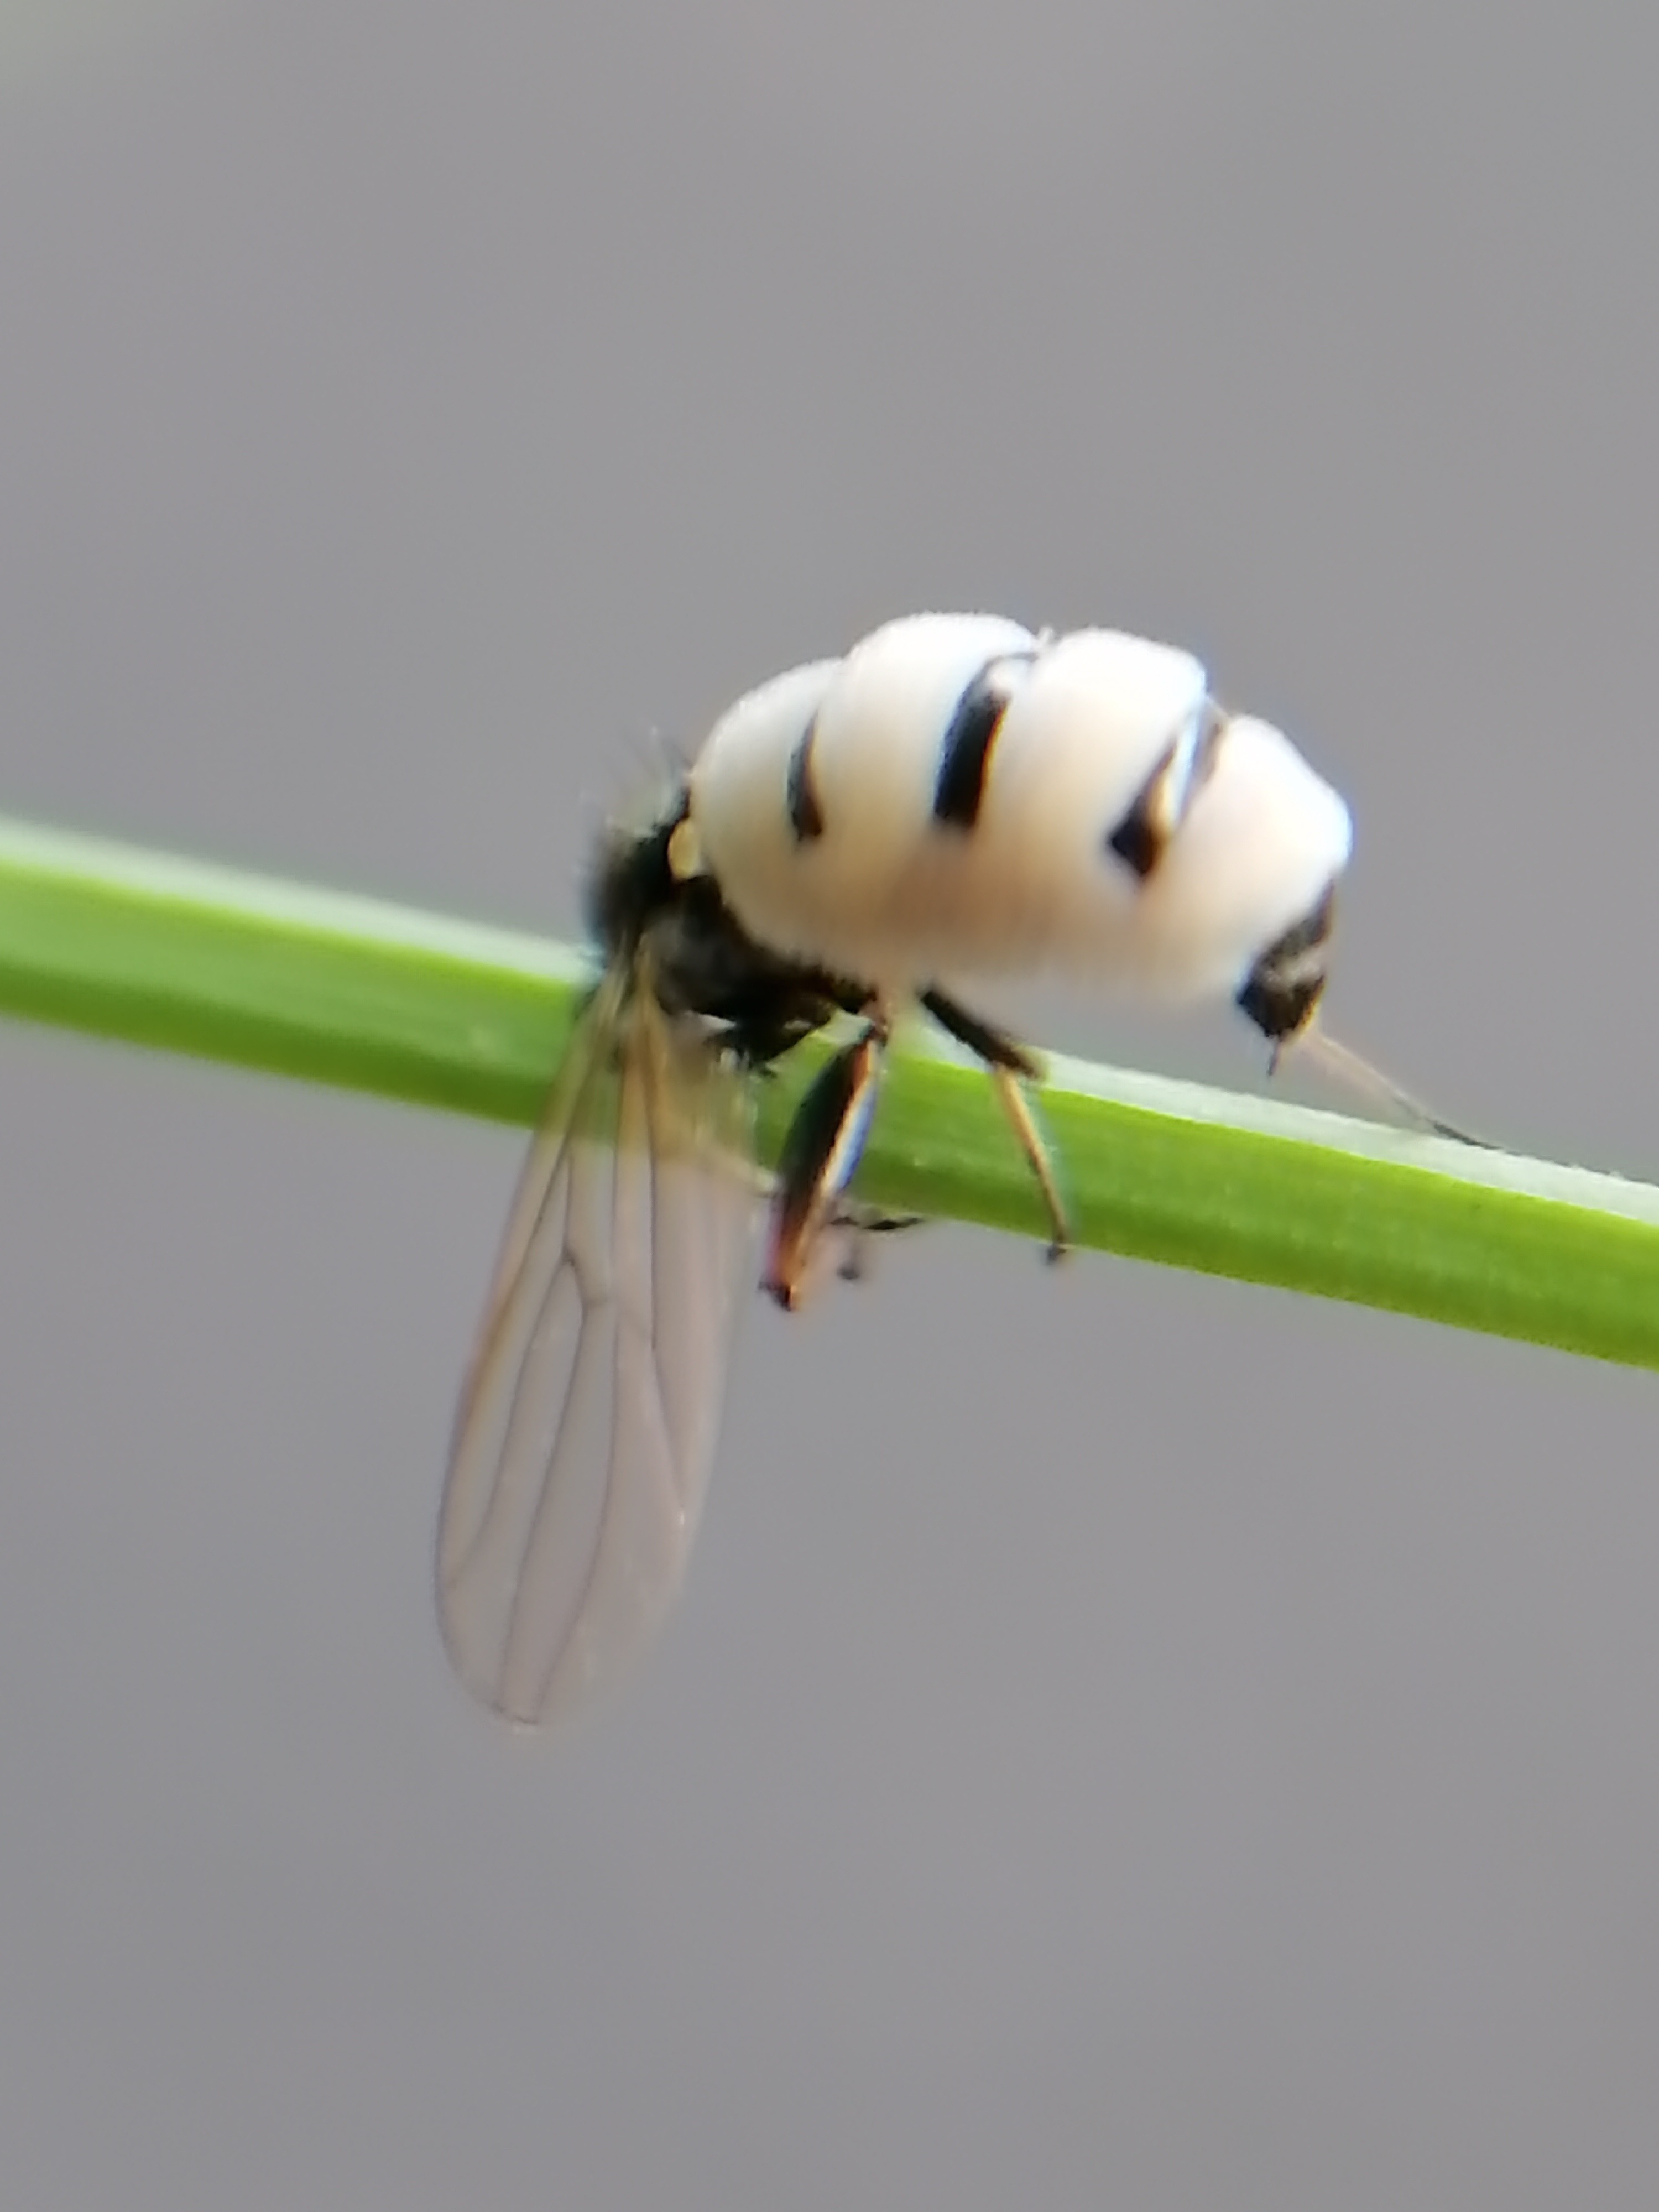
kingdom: Fungi
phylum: Entomophthoromycota
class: Entomophthoromycetes
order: Entomophthorales
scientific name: Entomophthorales
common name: flueskimmelordenen
